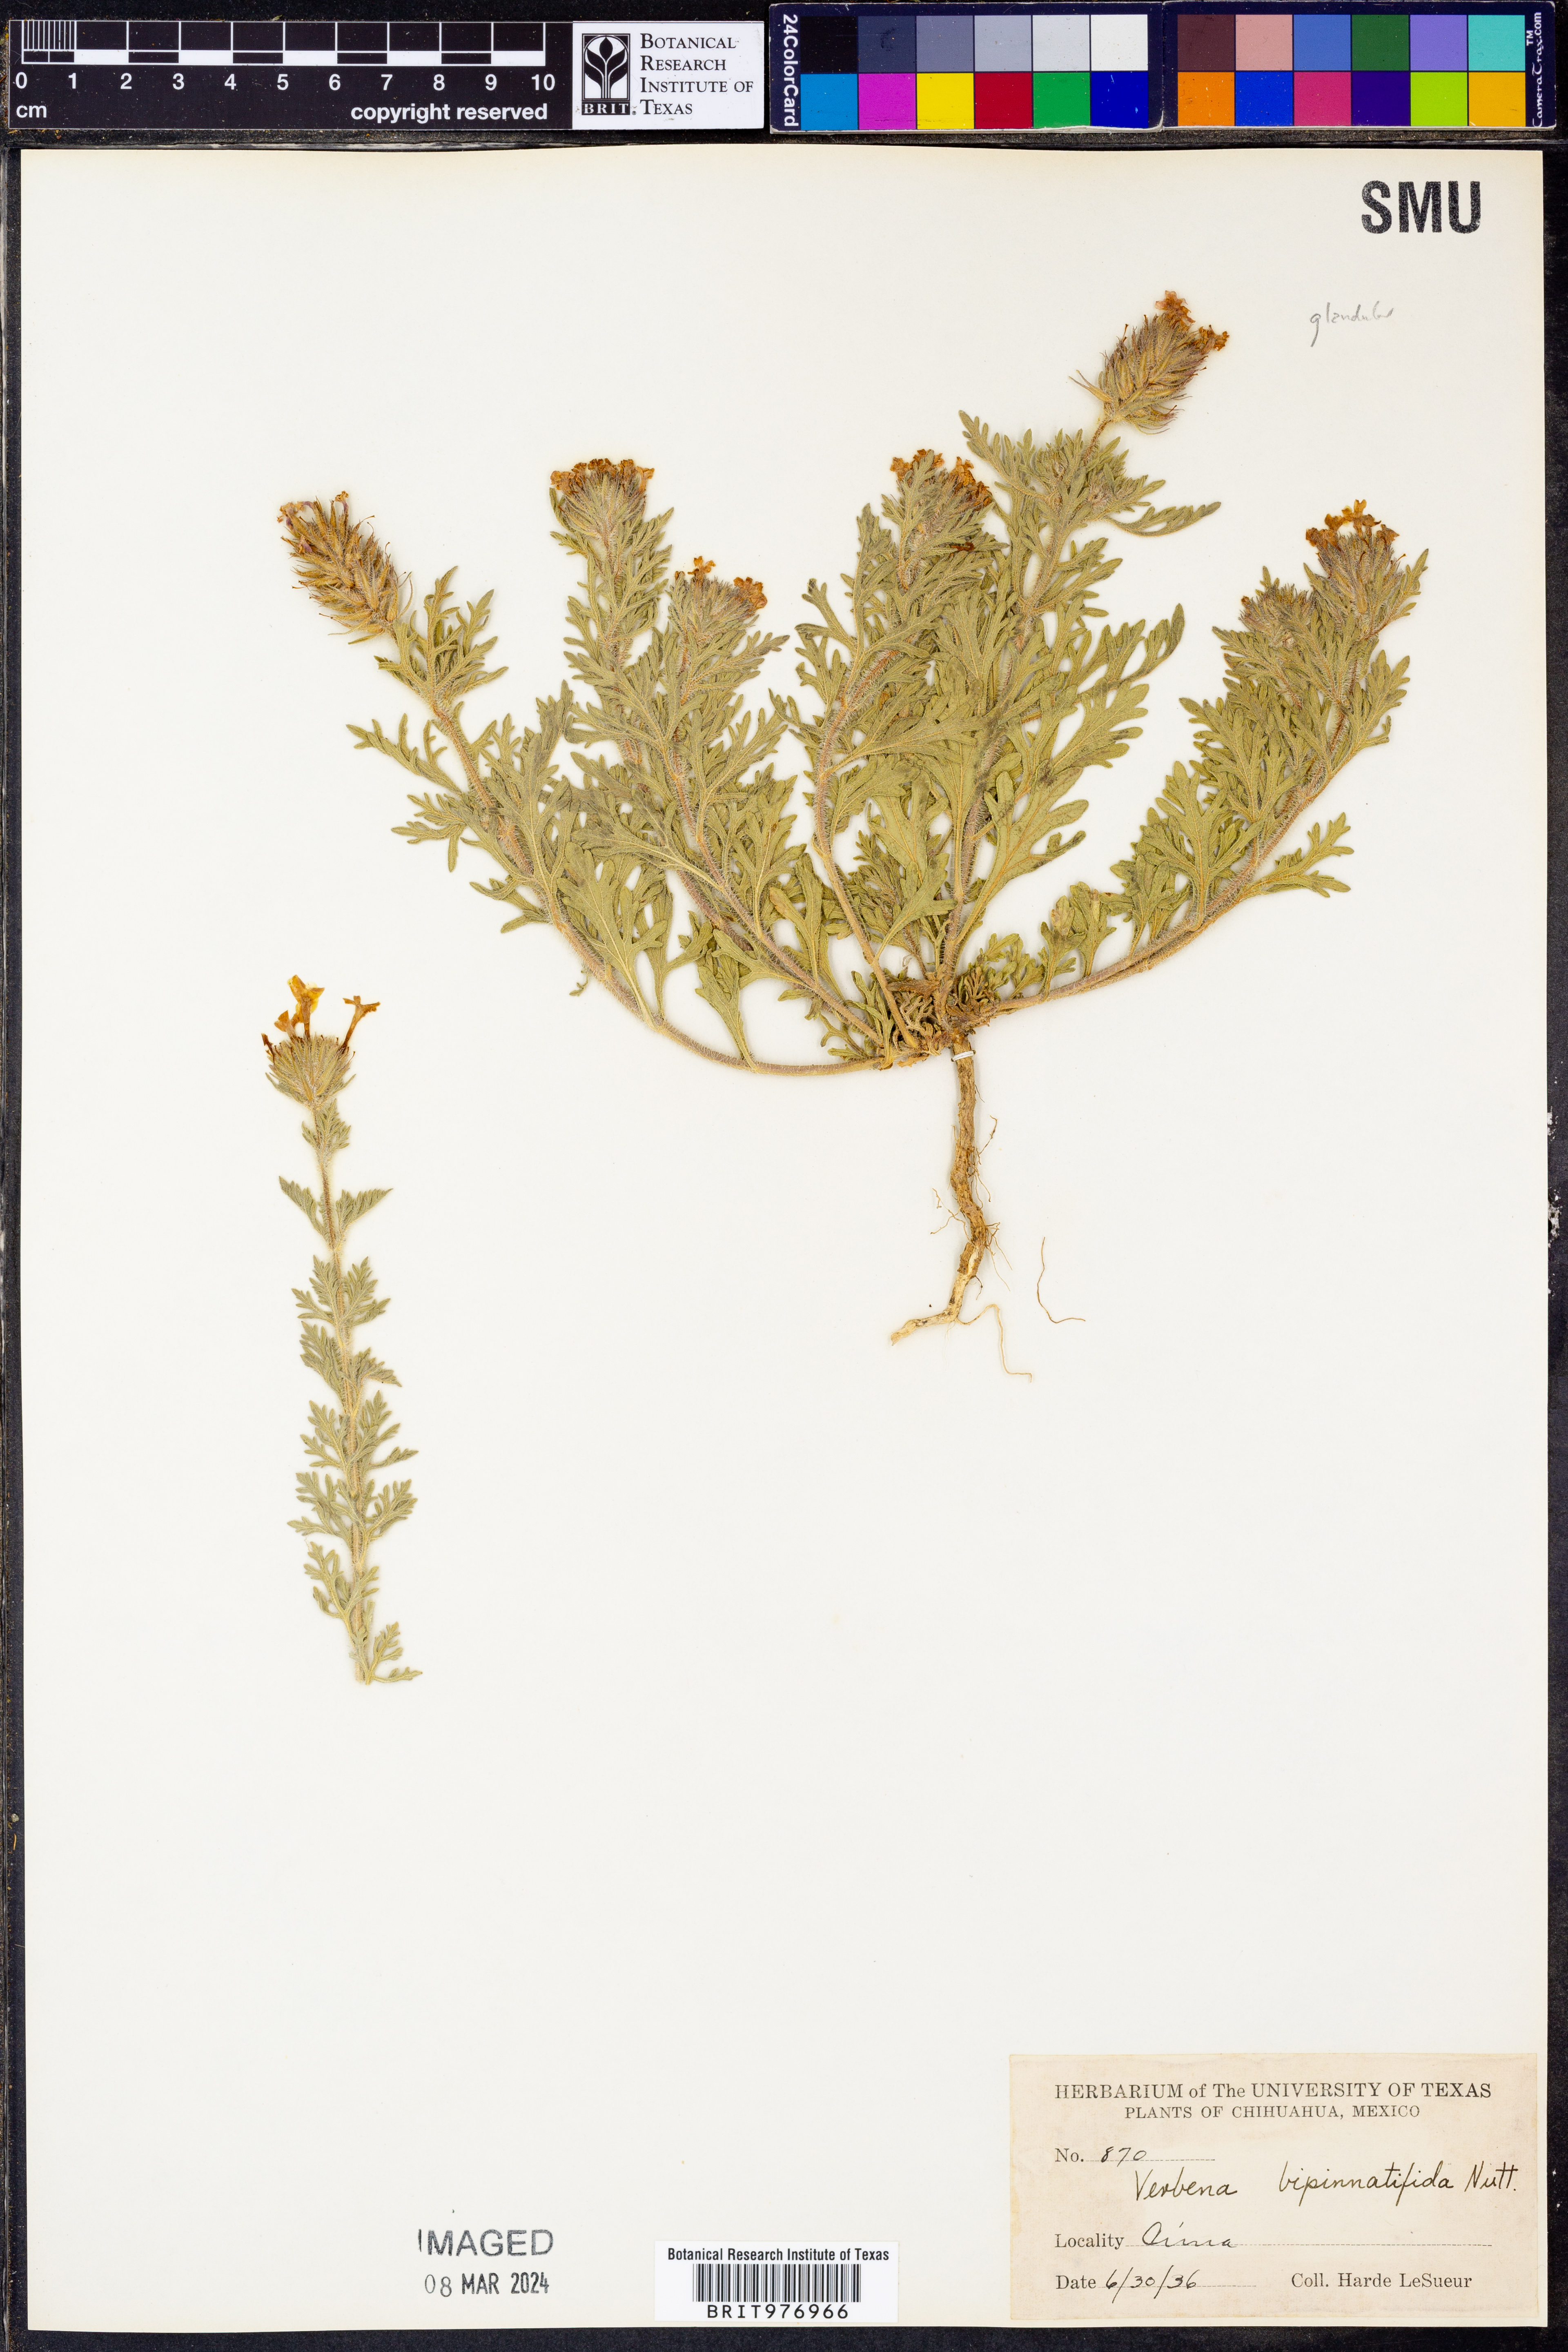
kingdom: Plantae
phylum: Tracheophyta
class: Magnoliopsida
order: Lamiales
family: Verbenaceae
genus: Verbena
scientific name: Verbena
